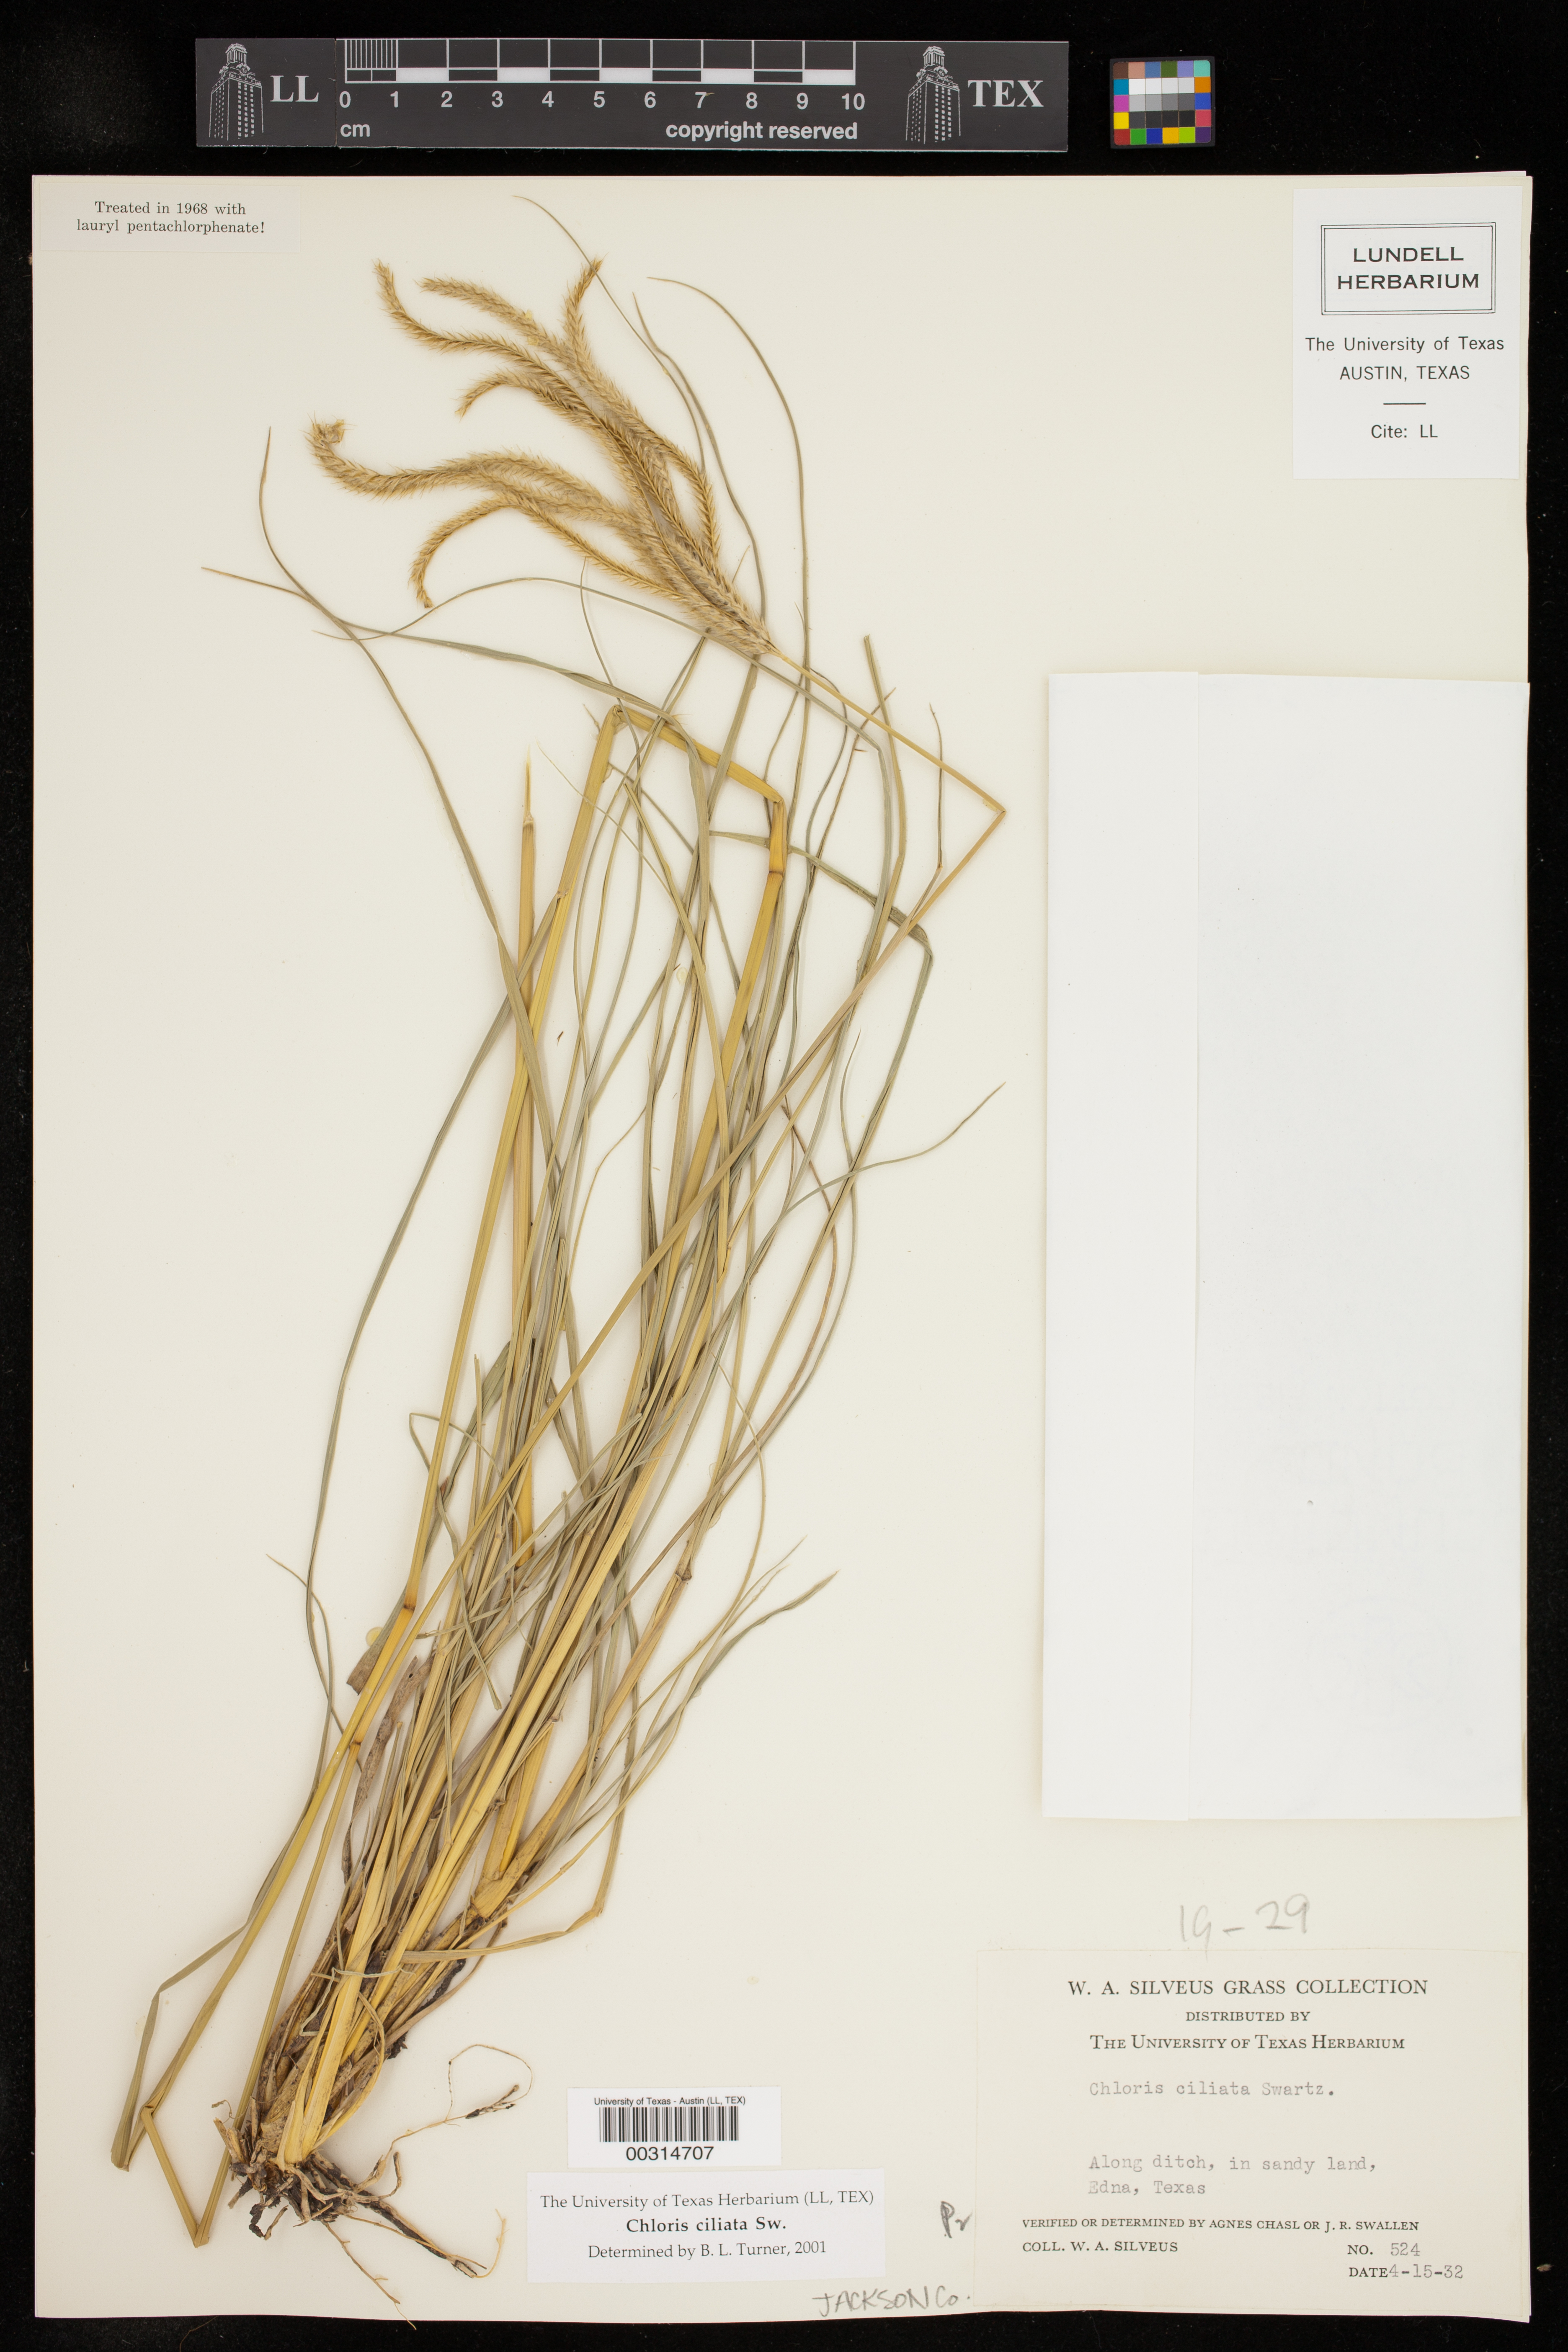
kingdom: Plantae
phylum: Tracheophyta
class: Liliopsida
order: Poales
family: Poaceae
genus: Stapfochloa
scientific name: Stapfochloa ciliata
